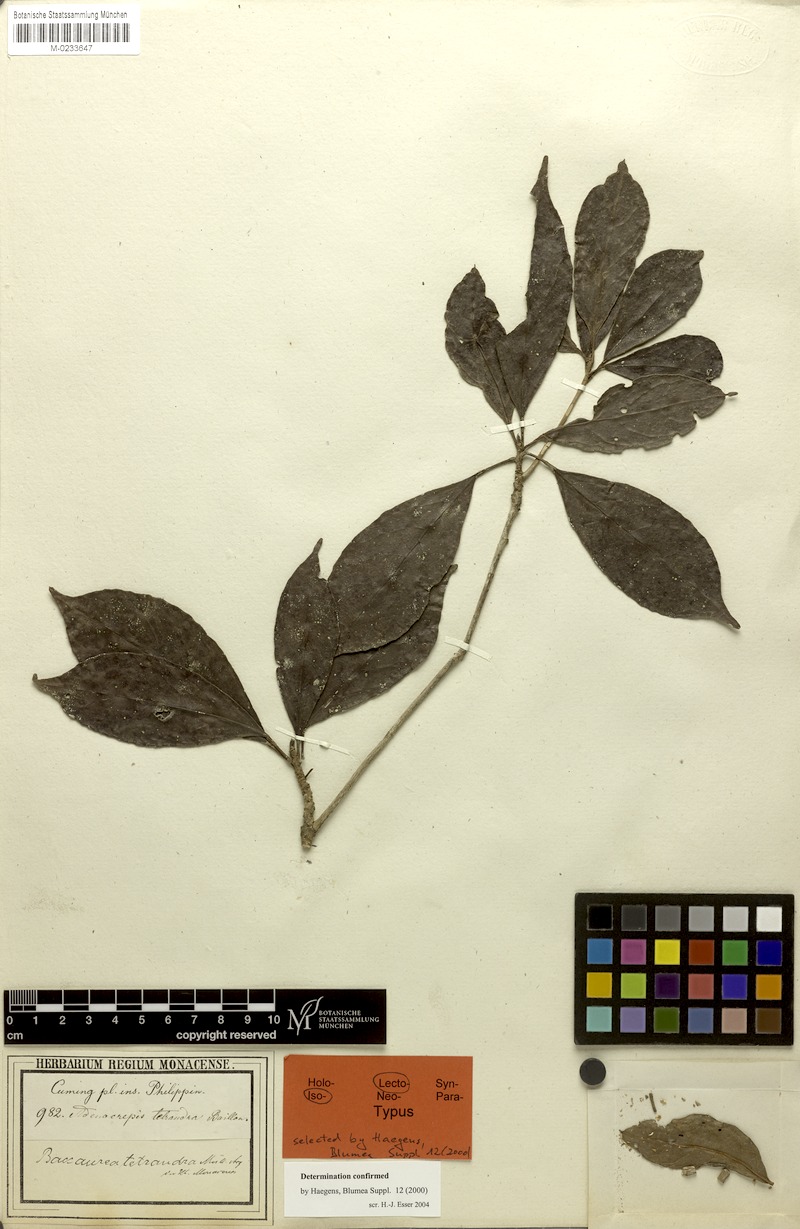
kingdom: Plantae
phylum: Tracheophyta
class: Magnoliopsida
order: Malpighiales
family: Phyllanthaceae
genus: Baccaurea
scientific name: Baccaurea tetrandra
